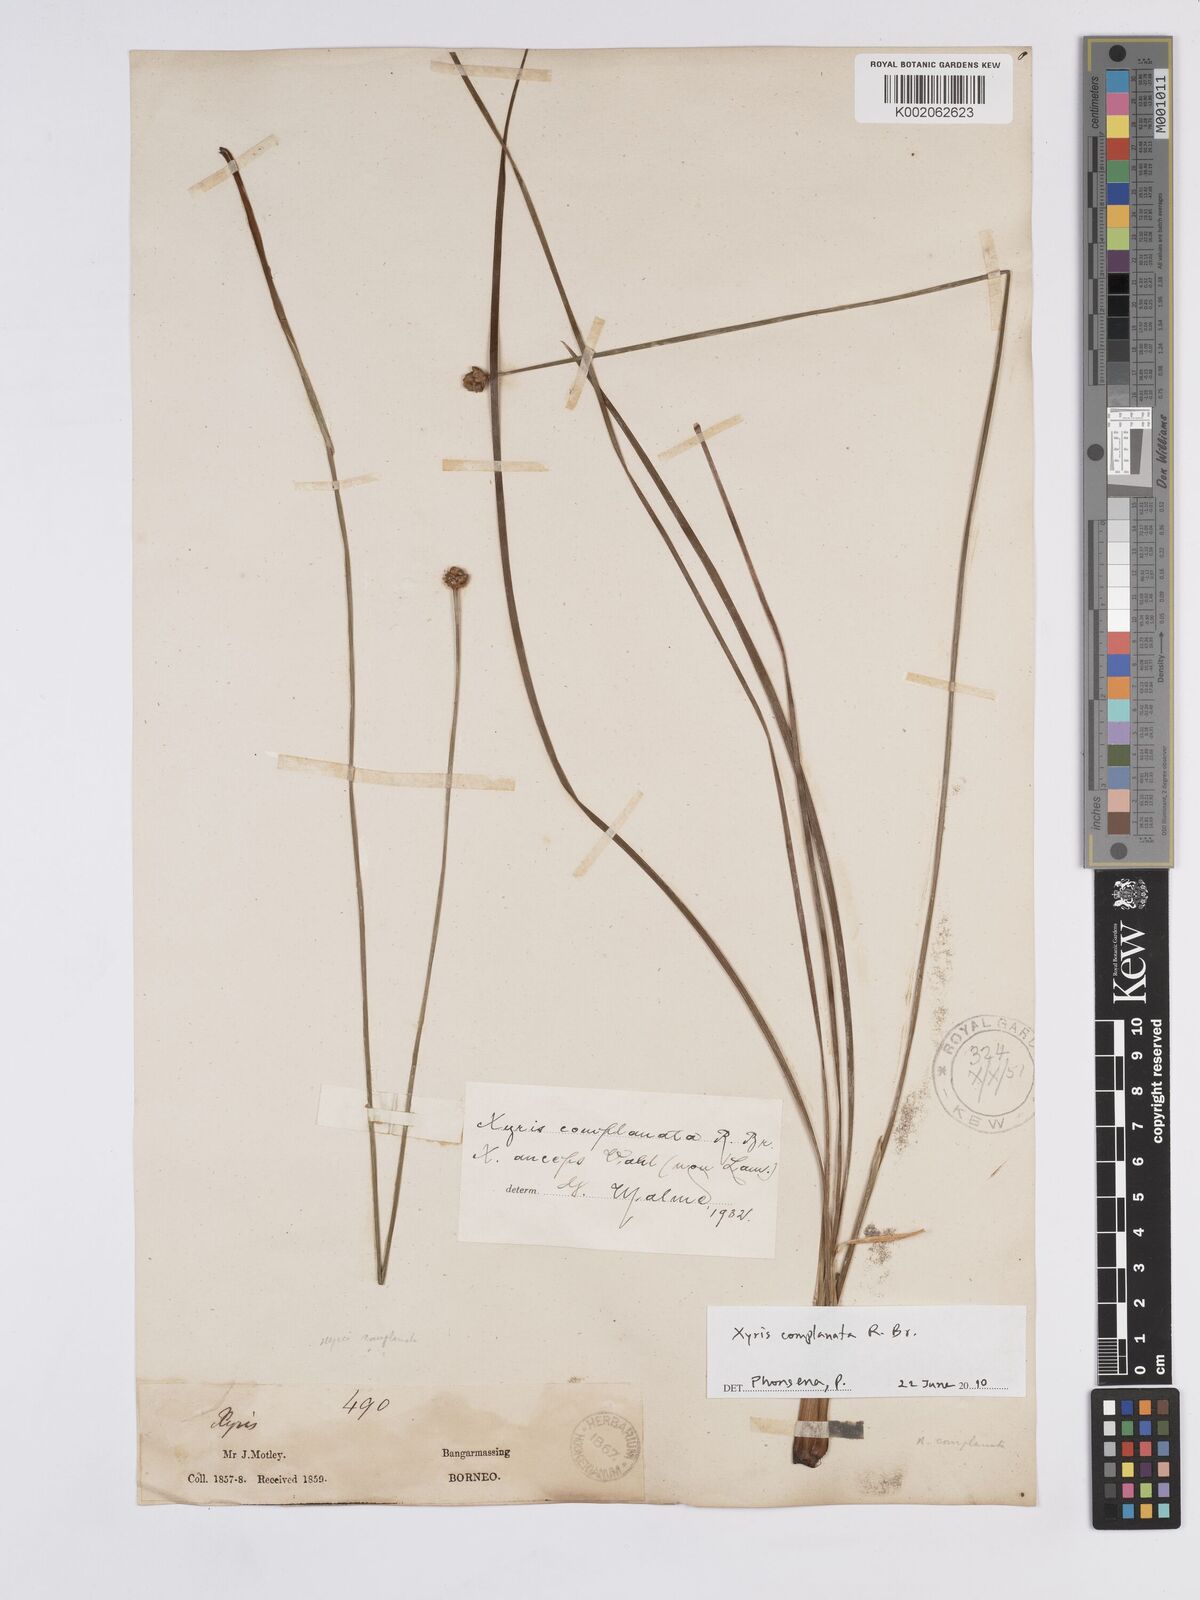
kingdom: Plantae
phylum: Tracheophyta
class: Liliopsida
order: Poales
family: Xyridaceae
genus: Xyris
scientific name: Xyris complanata
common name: Hawai'i yelloweyed grass
